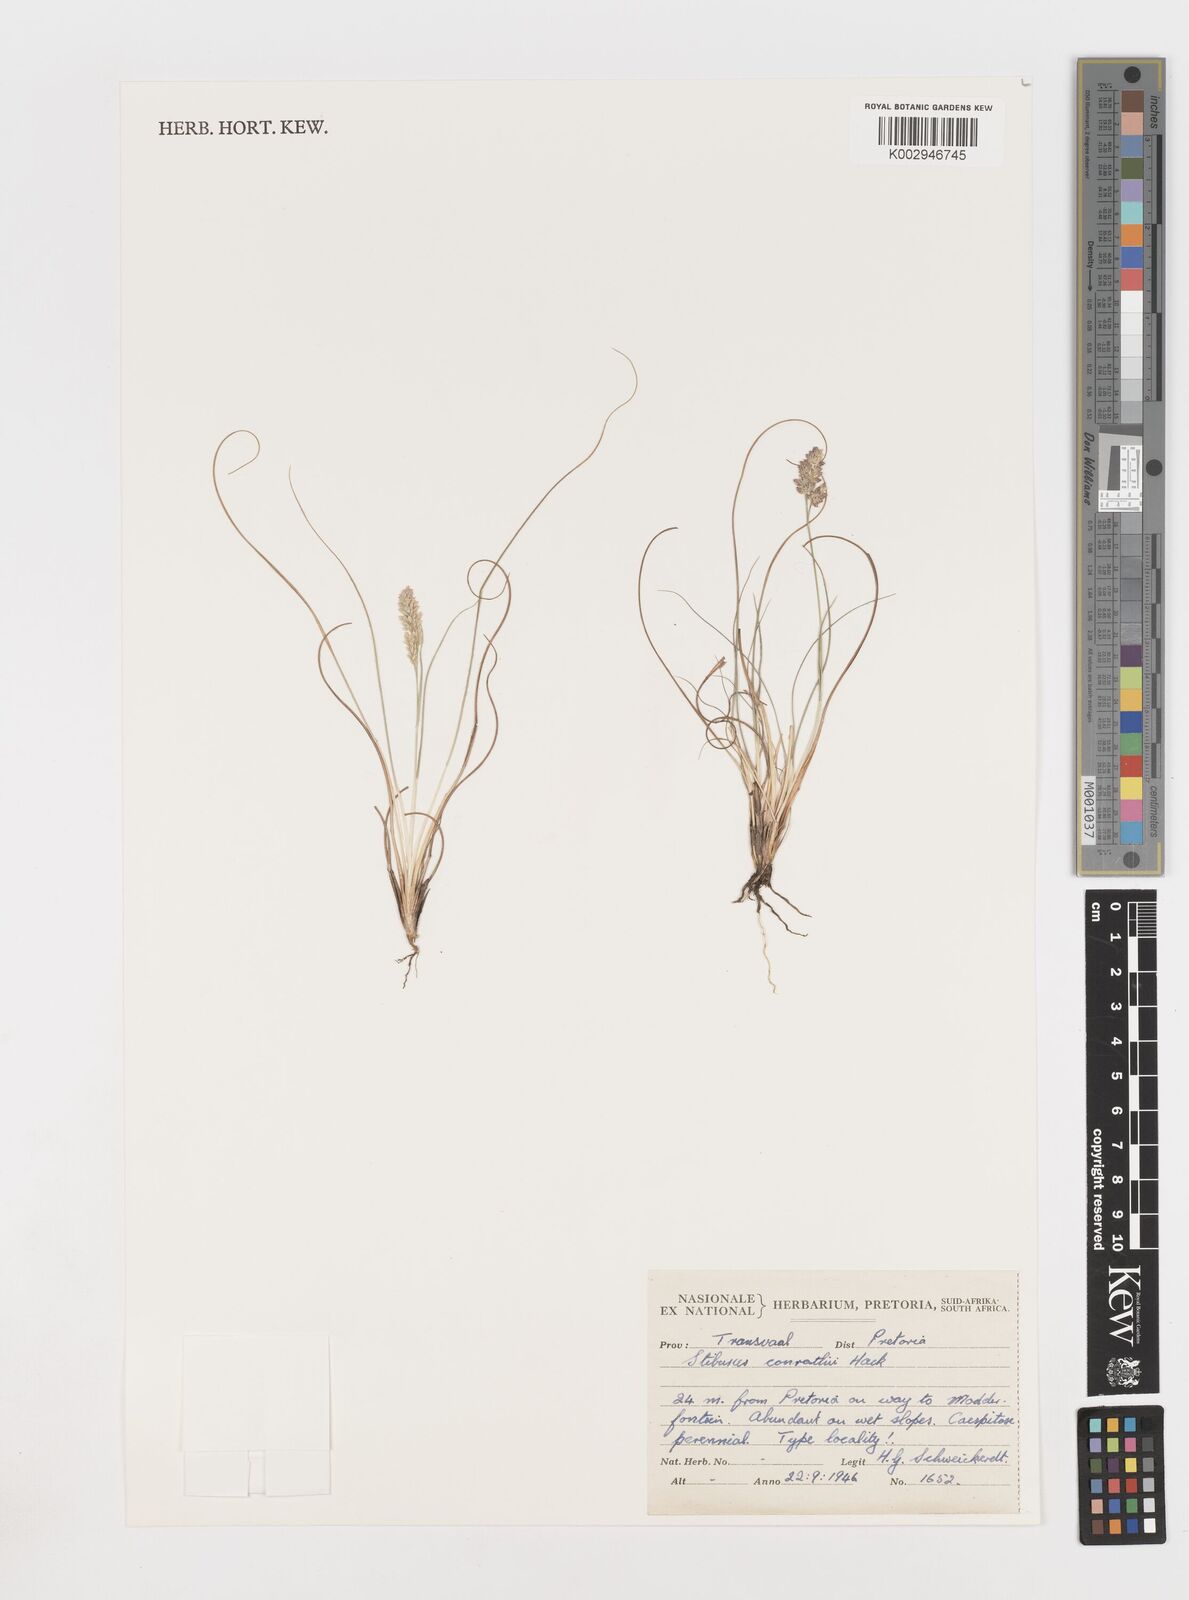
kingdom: Plantae
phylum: Tracheophyta
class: Liliopsida
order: Poales
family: Poaceae
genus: Stiburus
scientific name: Stiburus conrathii
